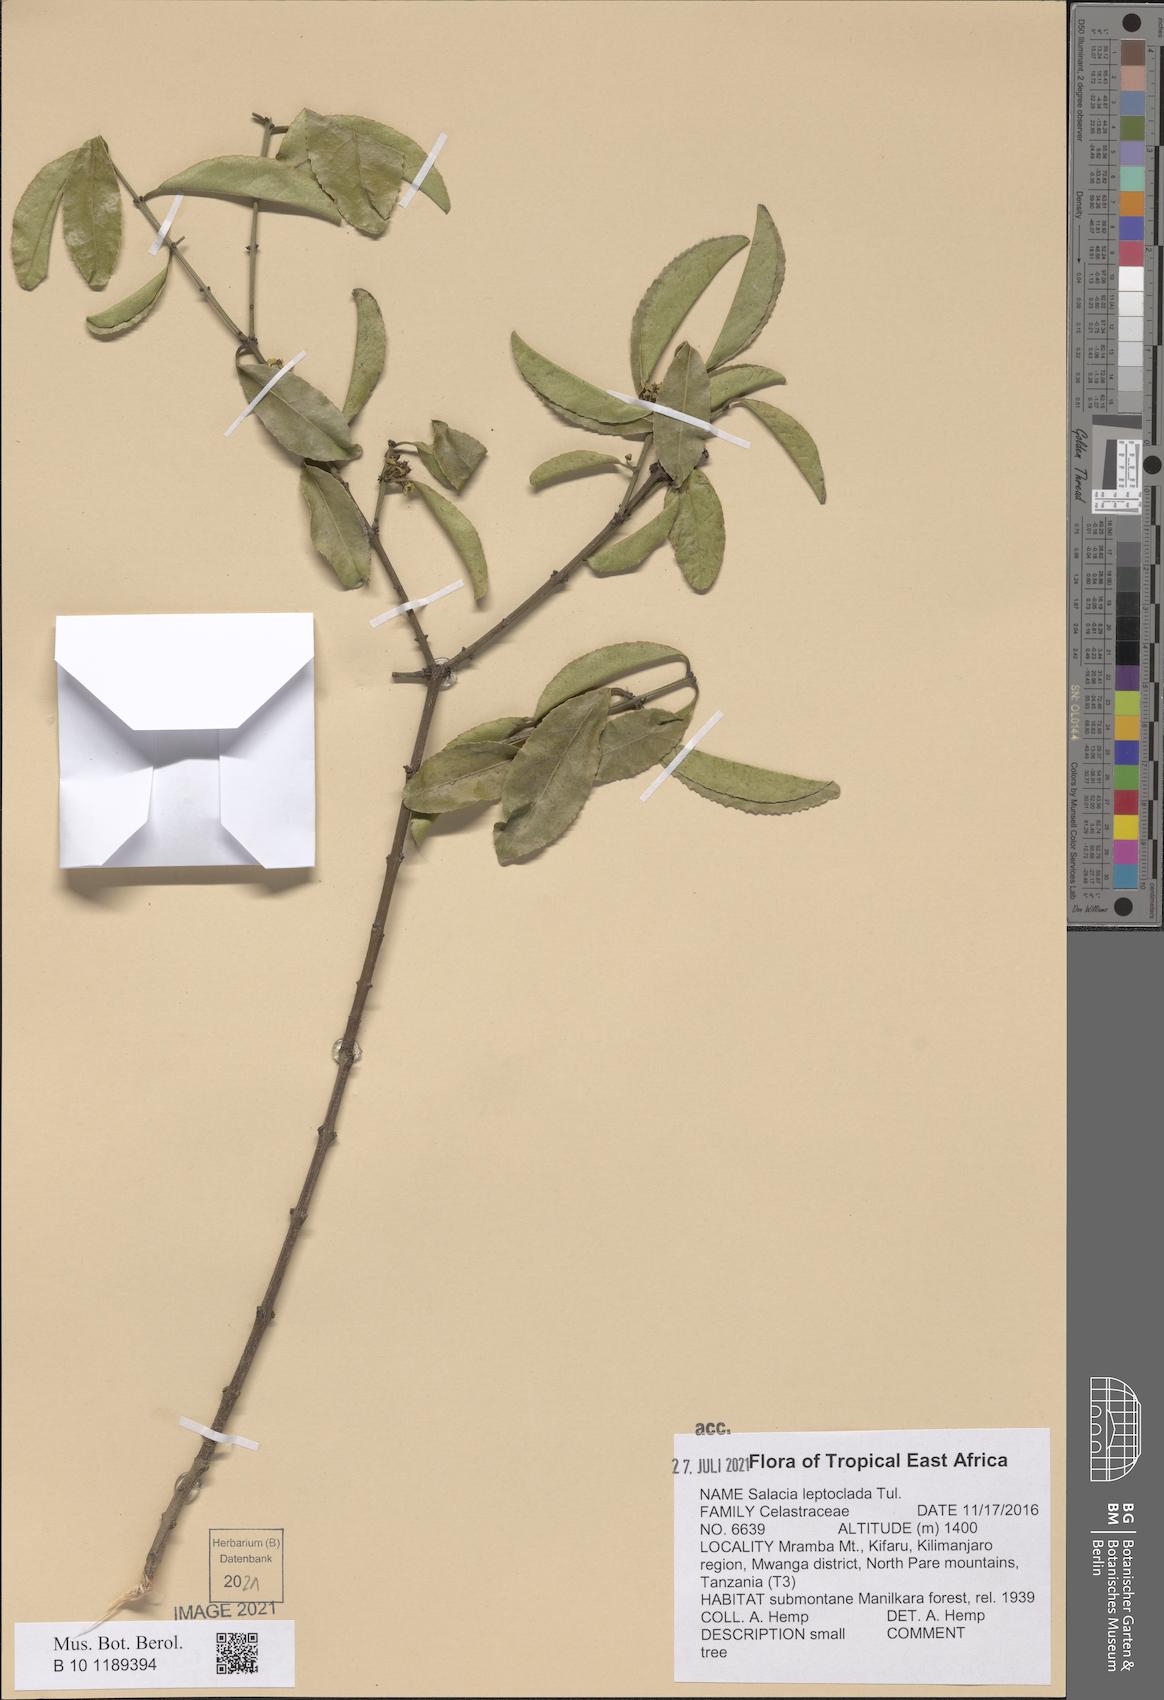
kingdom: Plantae
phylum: Tracheophyta
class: Magnoliopsida
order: Celastrales
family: Celastraceae
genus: Salacia
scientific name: Salacia leptoclada
